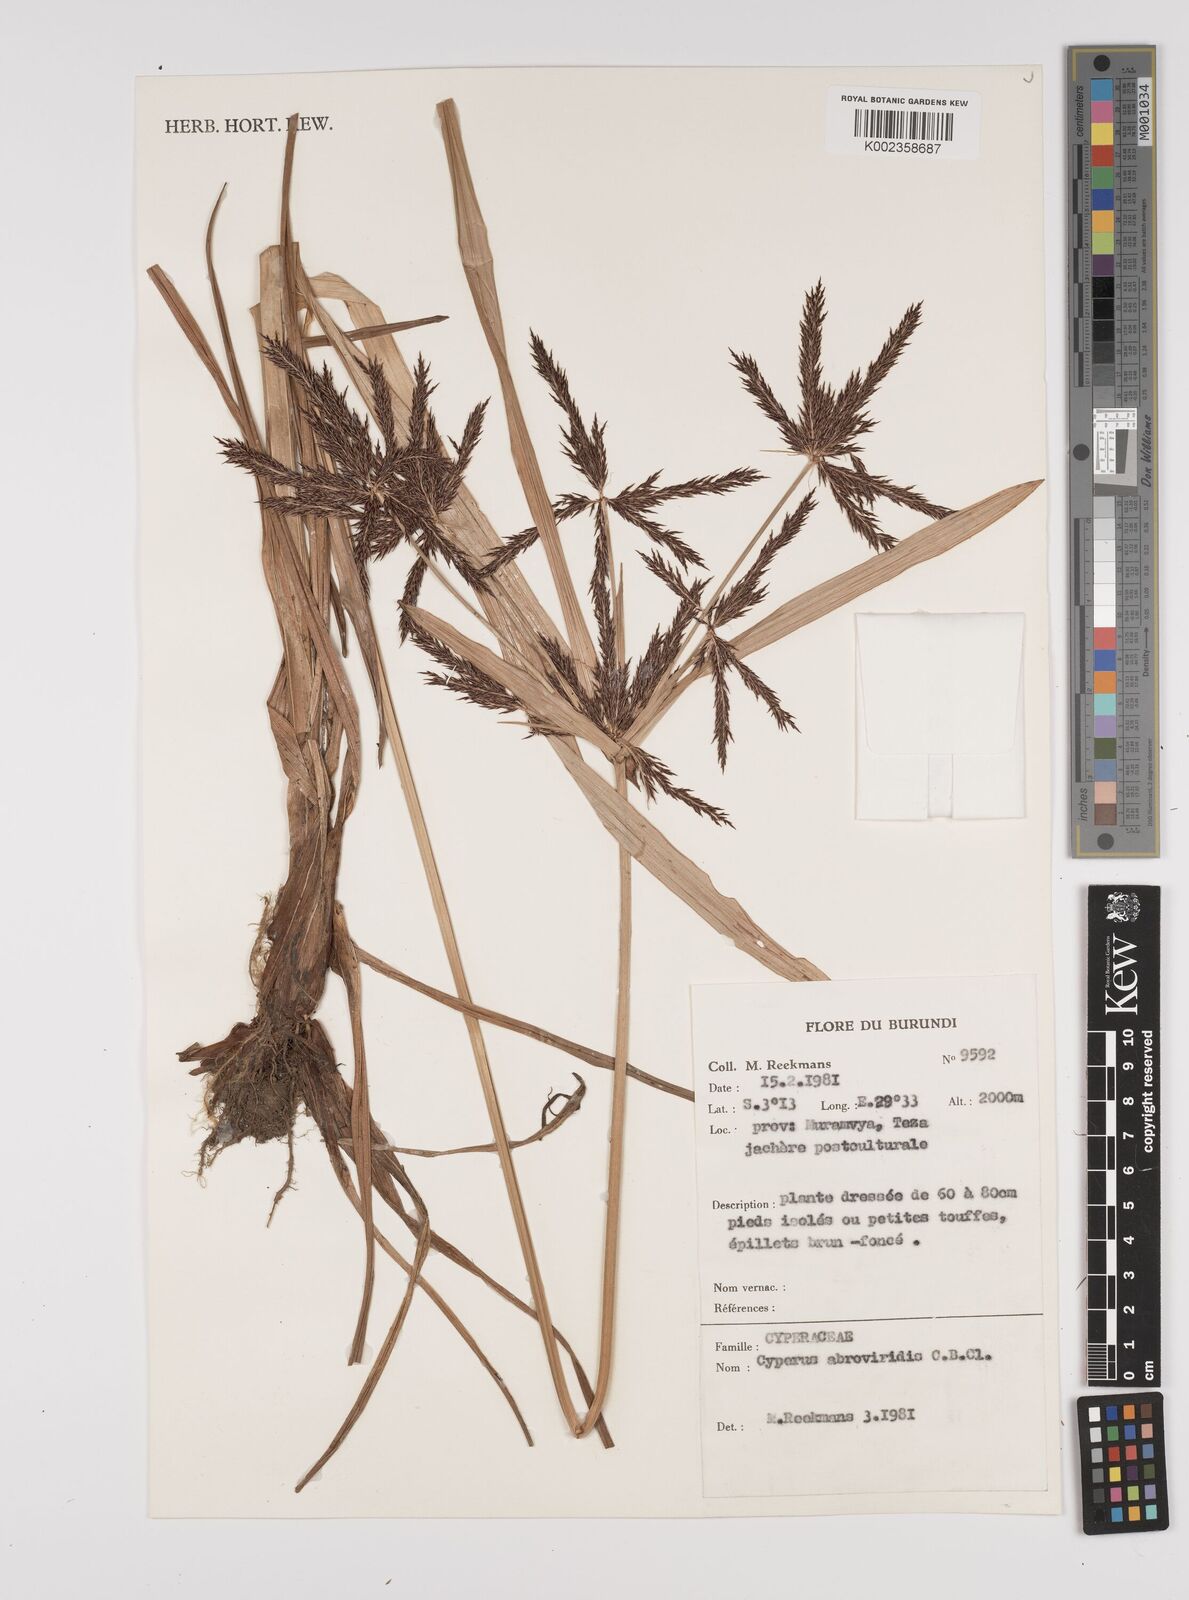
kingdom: Plantae
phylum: Tracheophyta
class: Liliopsida
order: Poales
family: Cyperaceae
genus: Cyperus
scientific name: Cyperus aterrimus
